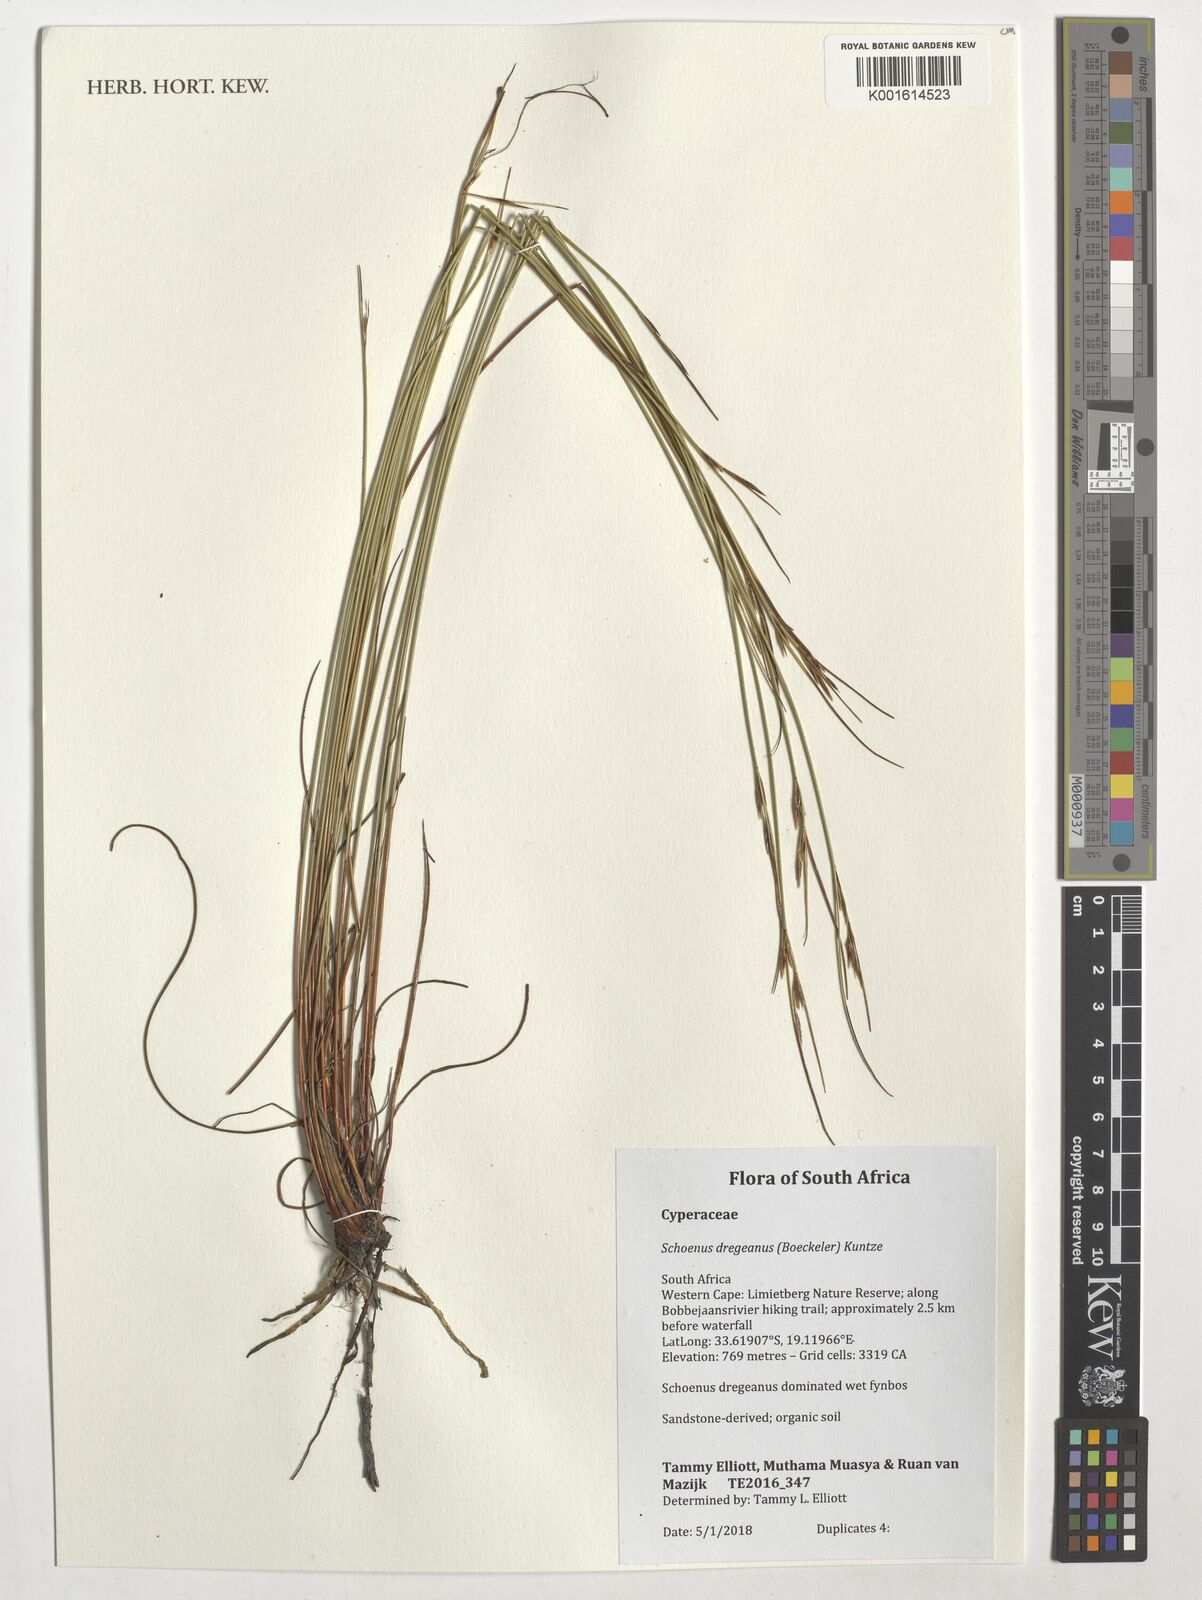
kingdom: Plantae
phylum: Tracheophyta
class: Liliopsida
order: Poales
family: Cyperaceae
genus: Schoenus
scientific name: Schoenus dregeanus
